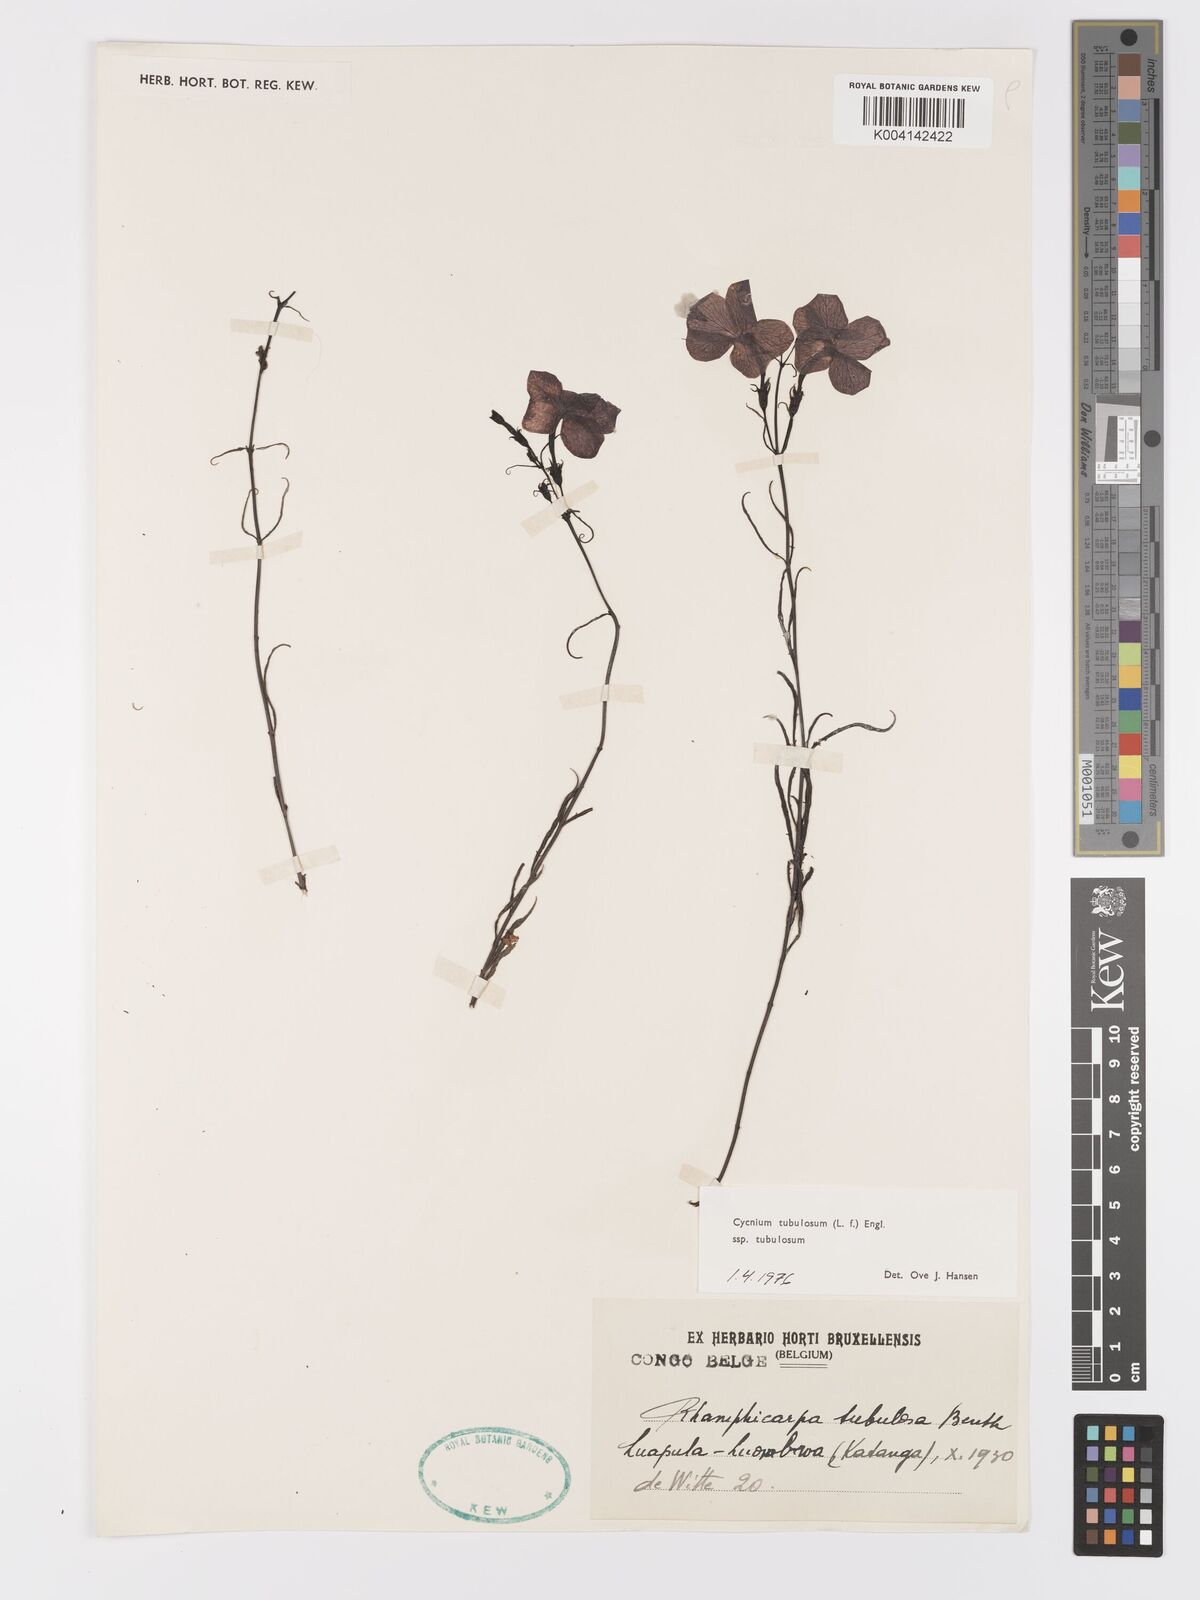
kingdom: Plantae
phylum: Tracheophyta
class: Magnoliopsida
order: Lamiales
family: Orobanchaceae
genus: Cycnium
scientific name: Cycnium tubulosum
